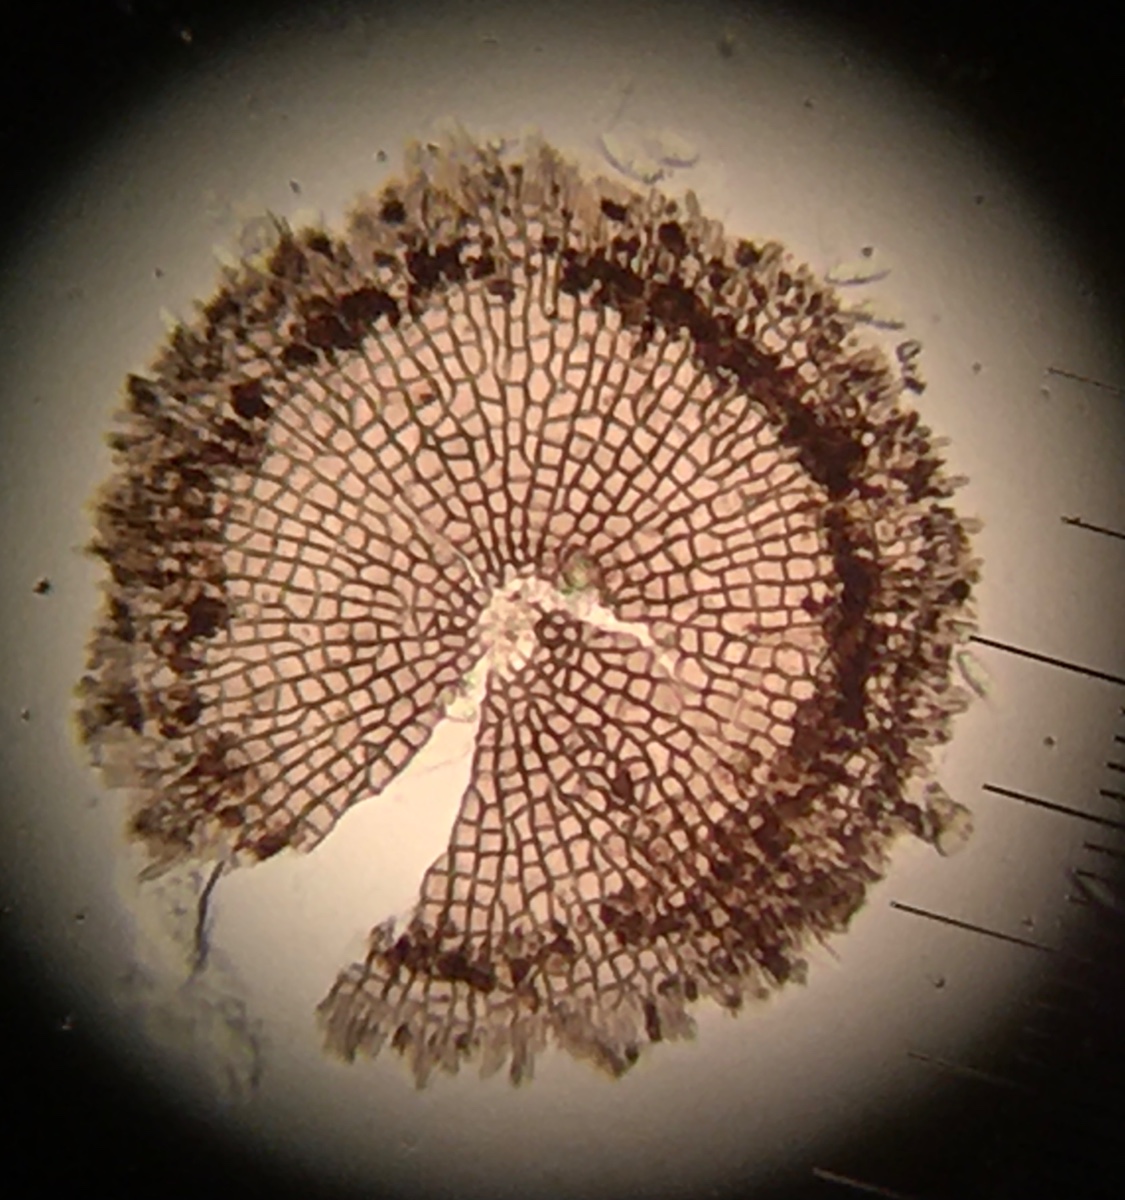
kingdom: Fungi
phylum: Ascomycota
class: Dothideomycetes
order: Microthyriales
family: Microthyriaceae
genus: Microthyrium
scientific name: Microthyrium ciliatum
